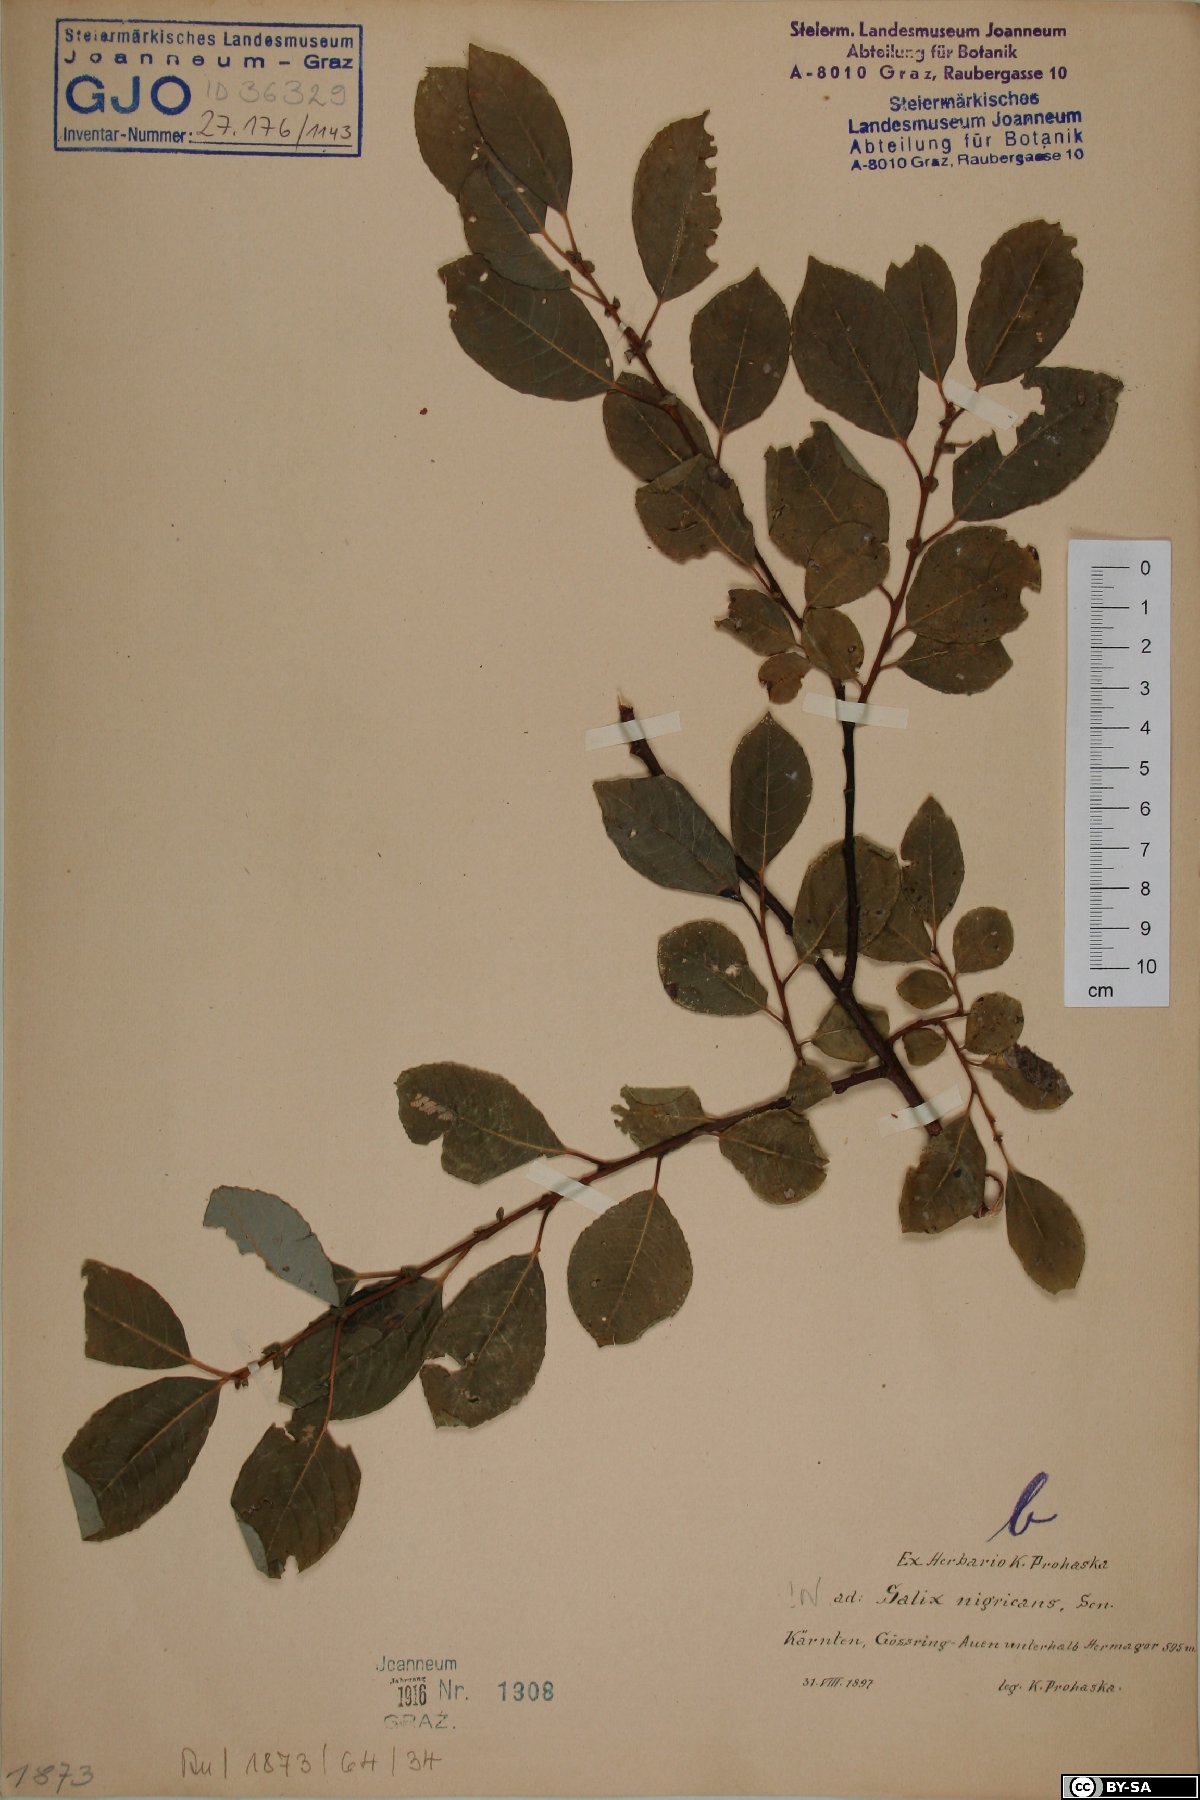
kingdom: Plantae
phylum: Tracheophyta
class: Magnoliopsida
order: Malpighiales
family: Salicaceae
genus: Salix
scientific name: Salix myrsinifolia
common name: Dark-leaved willow
